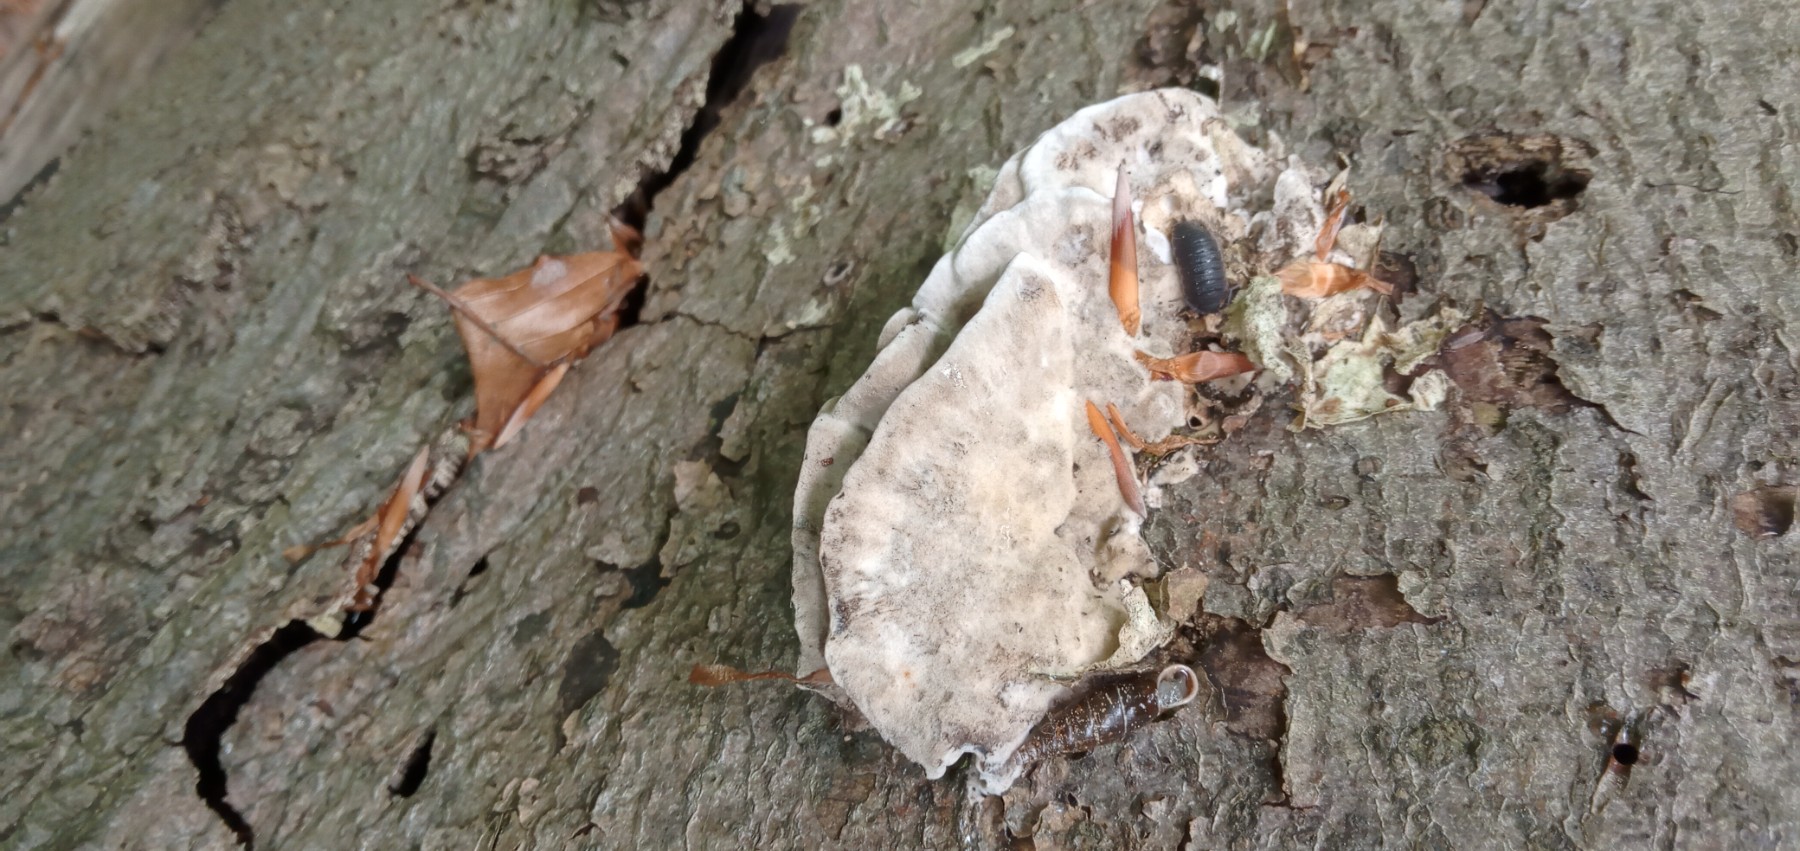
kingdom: Fungi
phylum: Basidiomycota
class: Agaricomycetes
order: Polyporales
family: Phanerochaetaceae
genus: Bjerkandera
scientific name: Bjerkandera adusta
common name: sveden sodporesvamp
